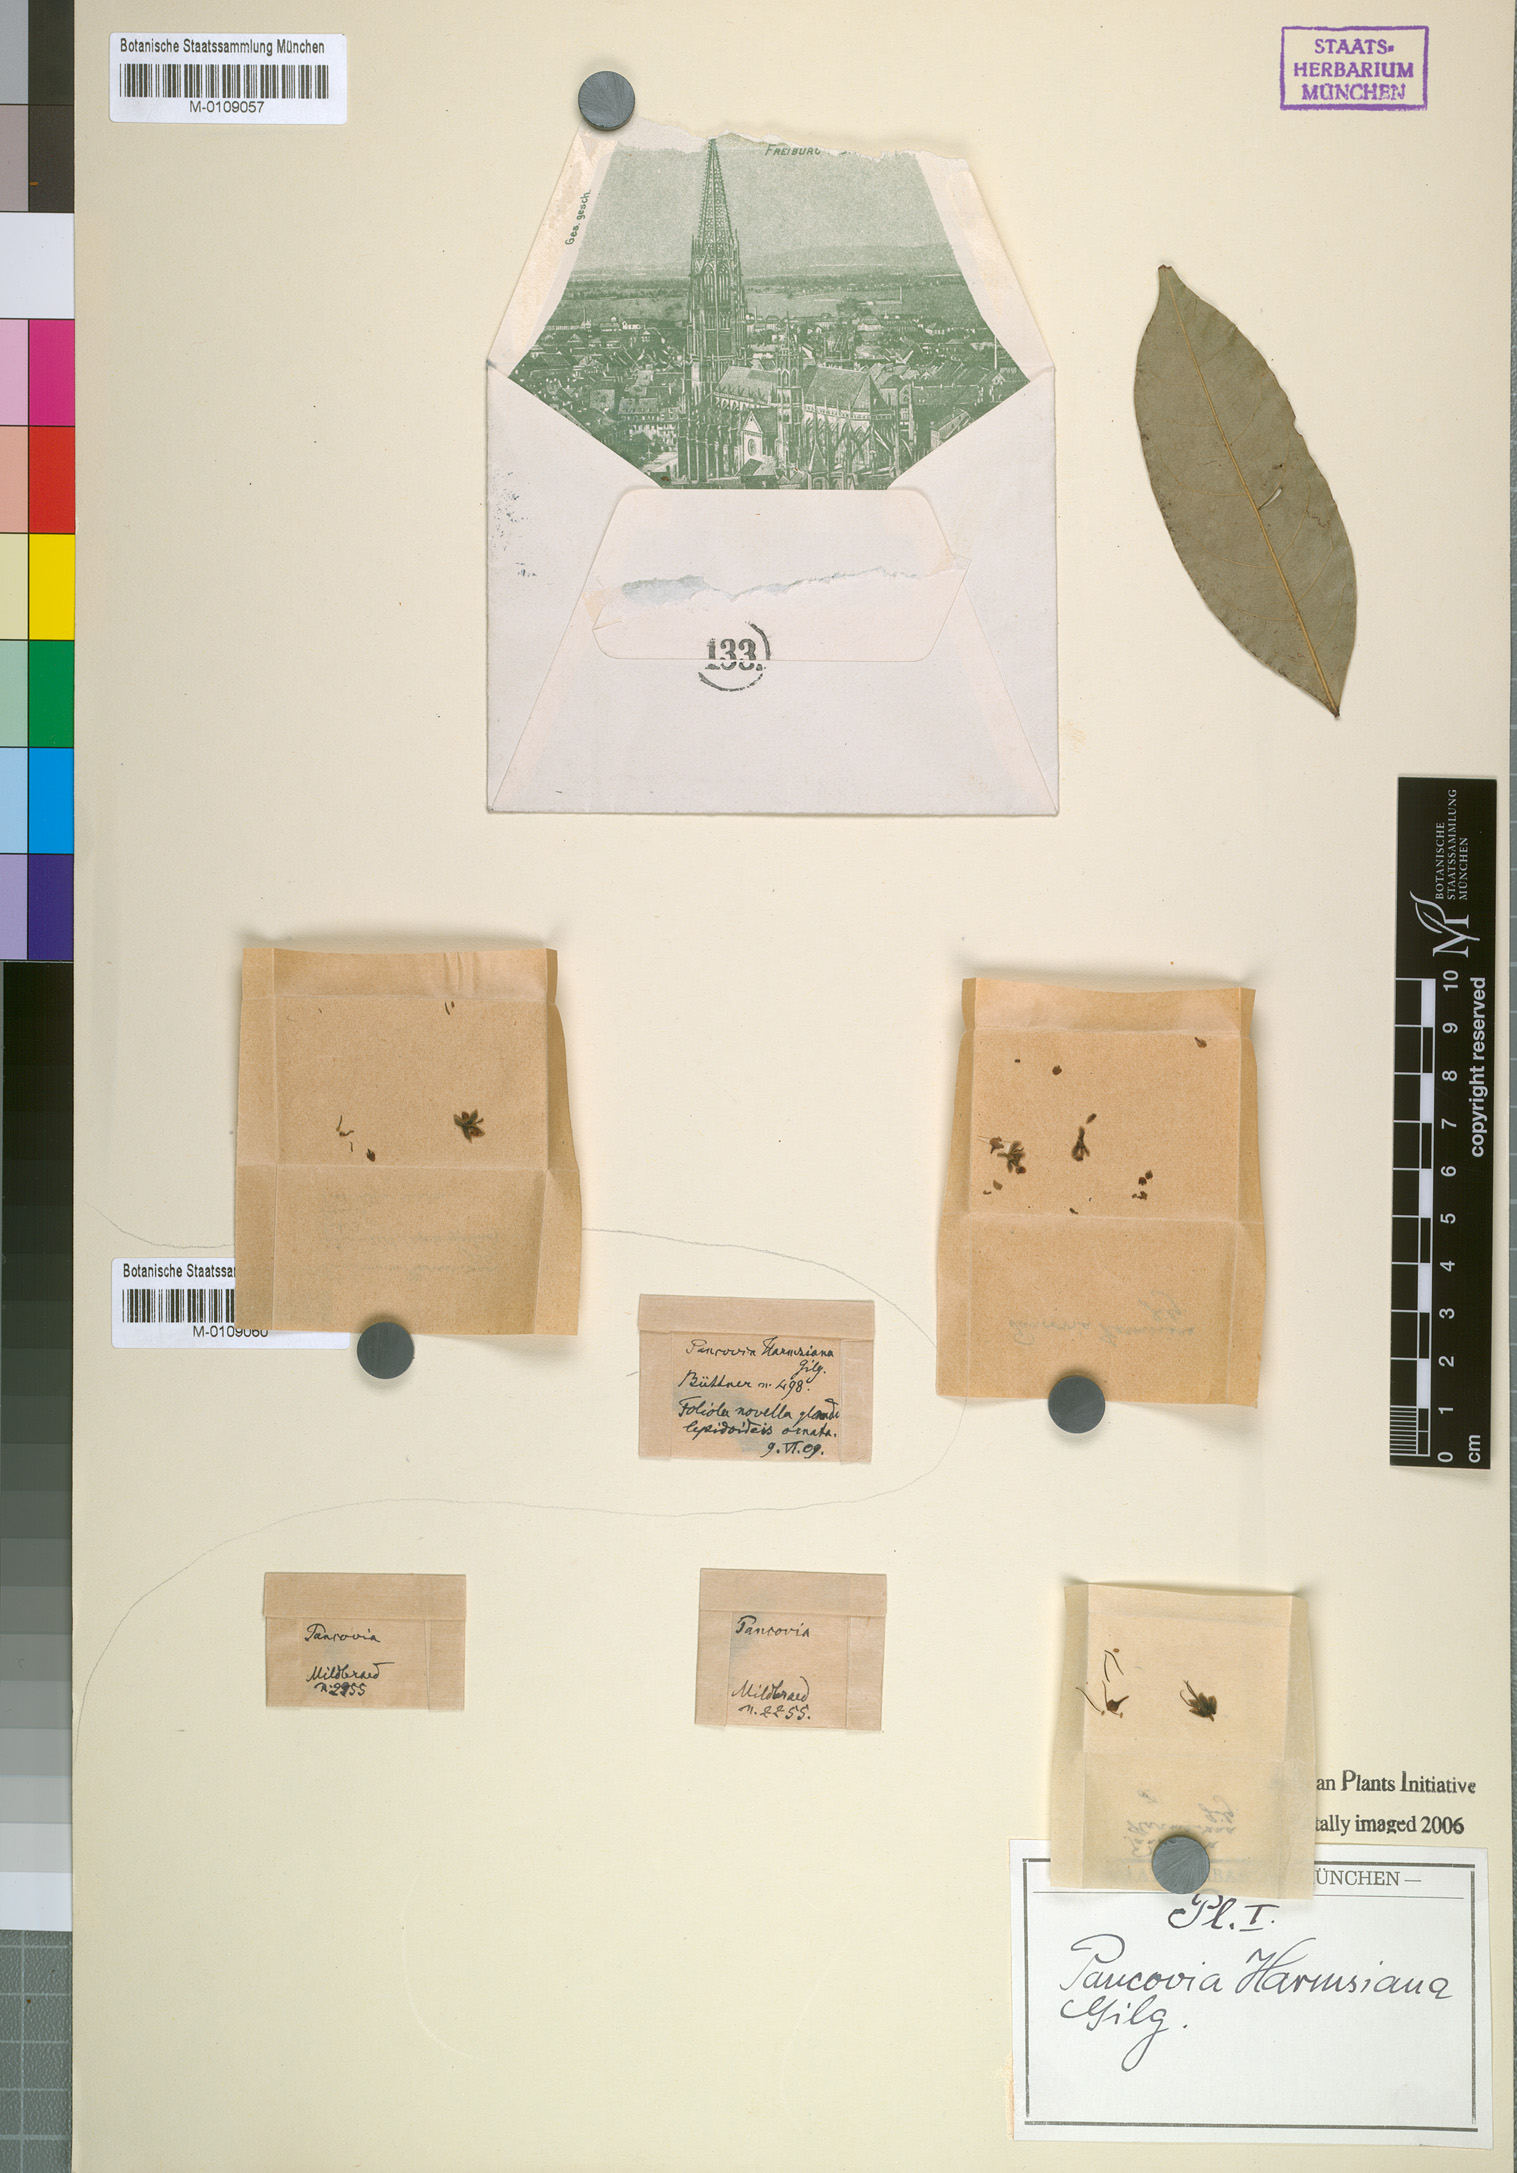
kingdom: Plantae
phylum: Tracheophyta
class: Magnoliopsida
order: Sapindales
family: Sapindaceae
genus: Pancovia
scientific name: Pancovia harmsiana
